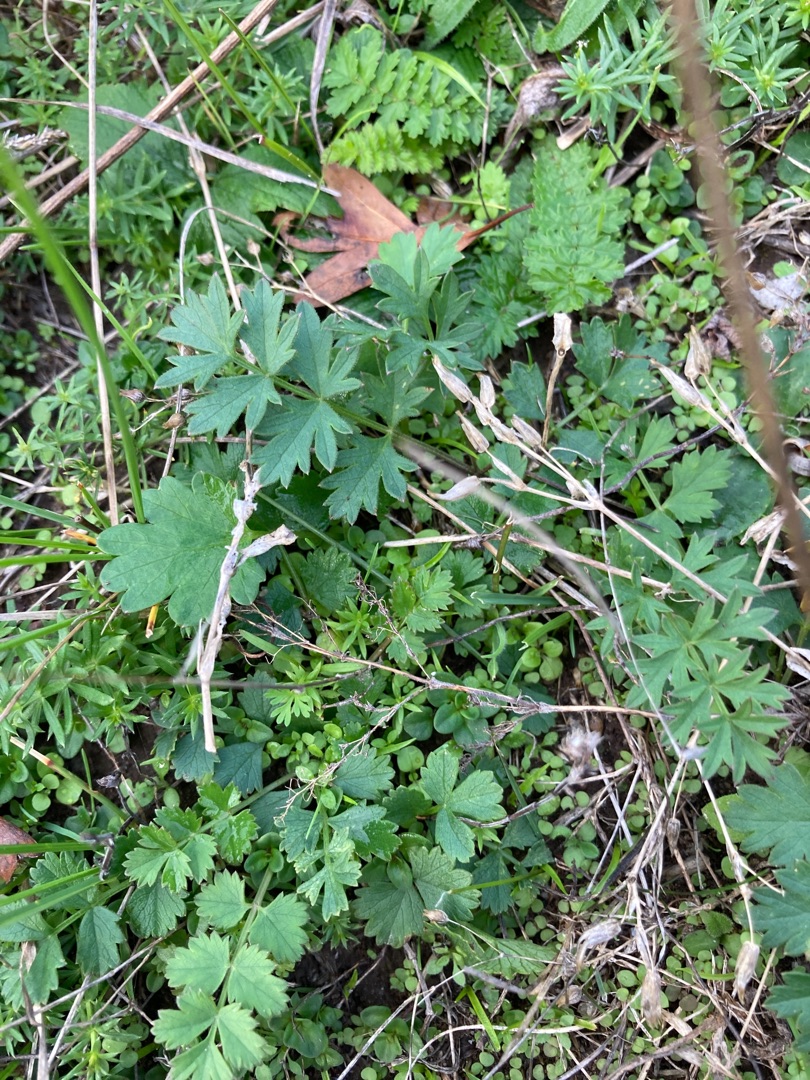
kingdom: Plantae
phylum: Tracheophyta
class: Magnoliopsida
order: Apiales
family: Apiaceae
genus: Pimpinella
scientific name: Pimpinella saxifraga
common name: Almindelig pimpinelle
